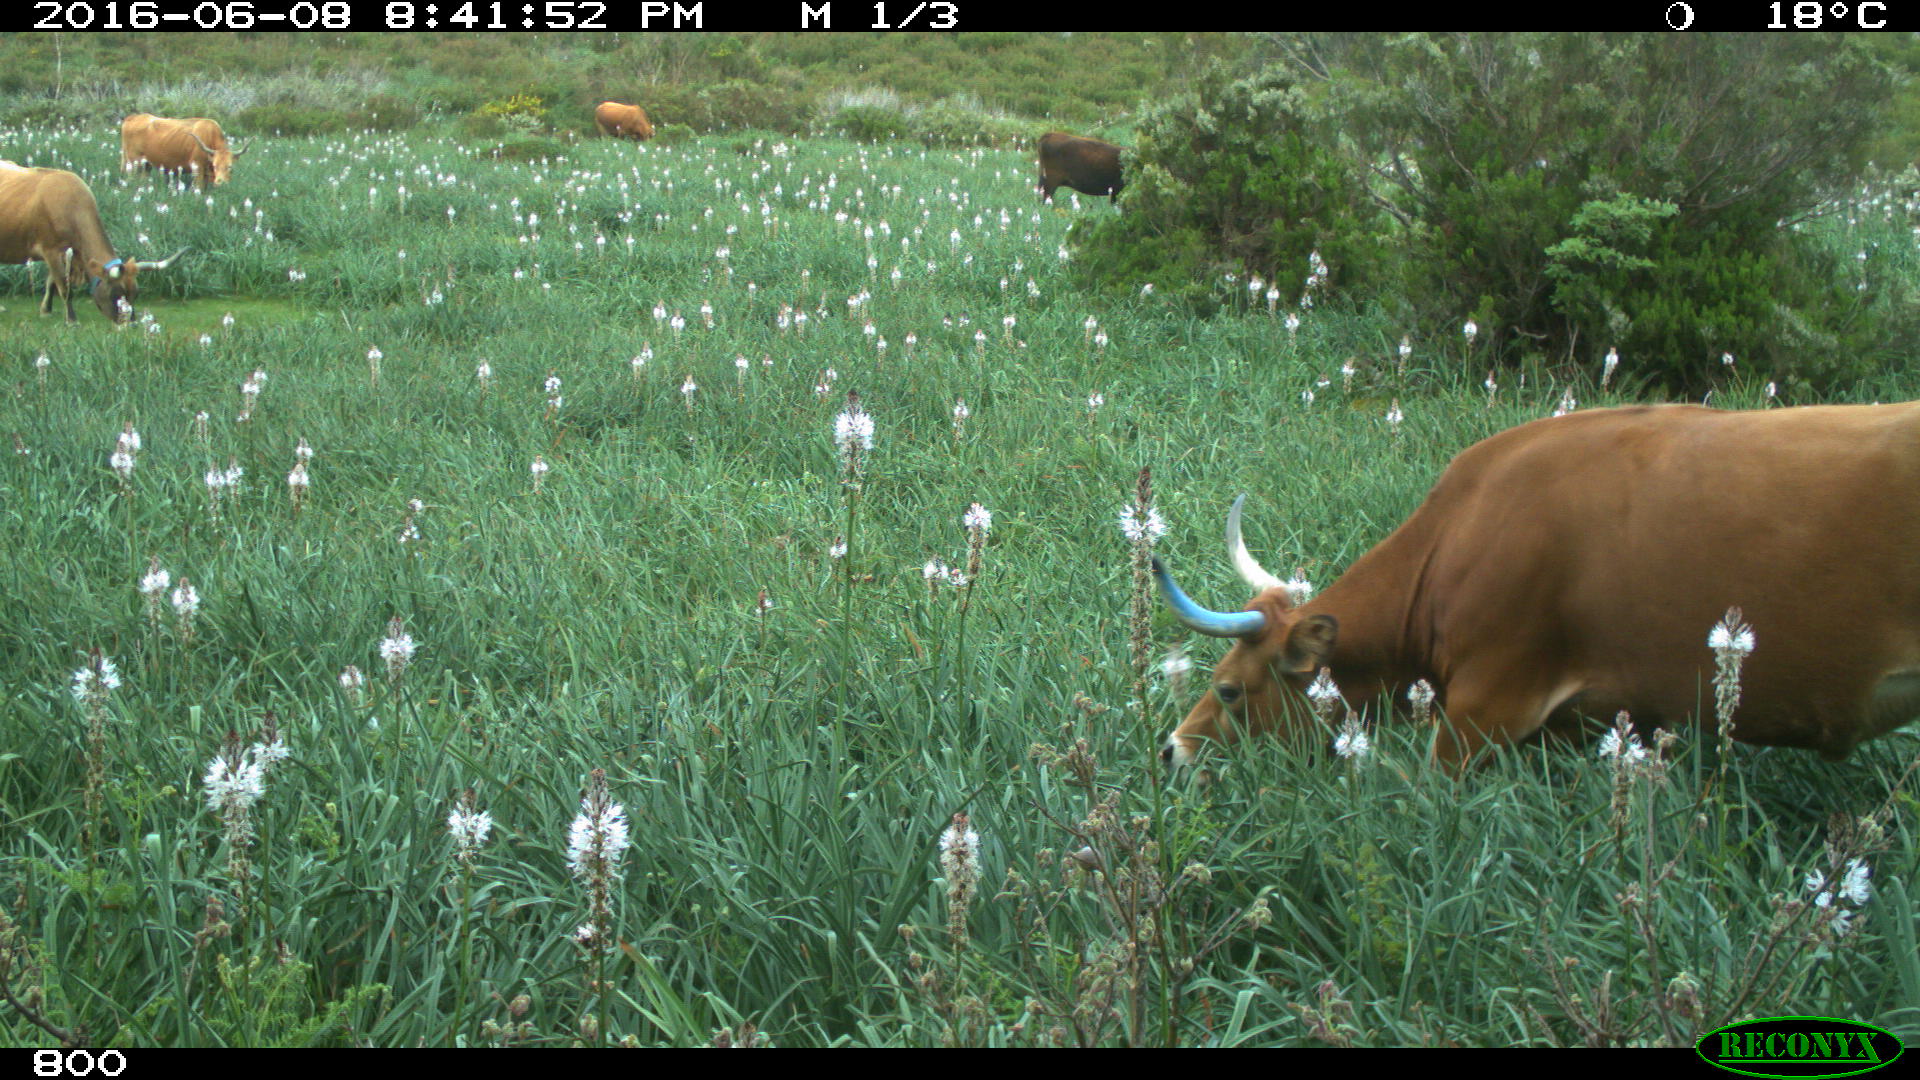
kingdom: Animalia
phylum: Chordata
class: Mammalia
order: Artiodactyla
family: Bovidae
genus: Bos
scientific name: Bos taurus
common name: Domesticated cattle
